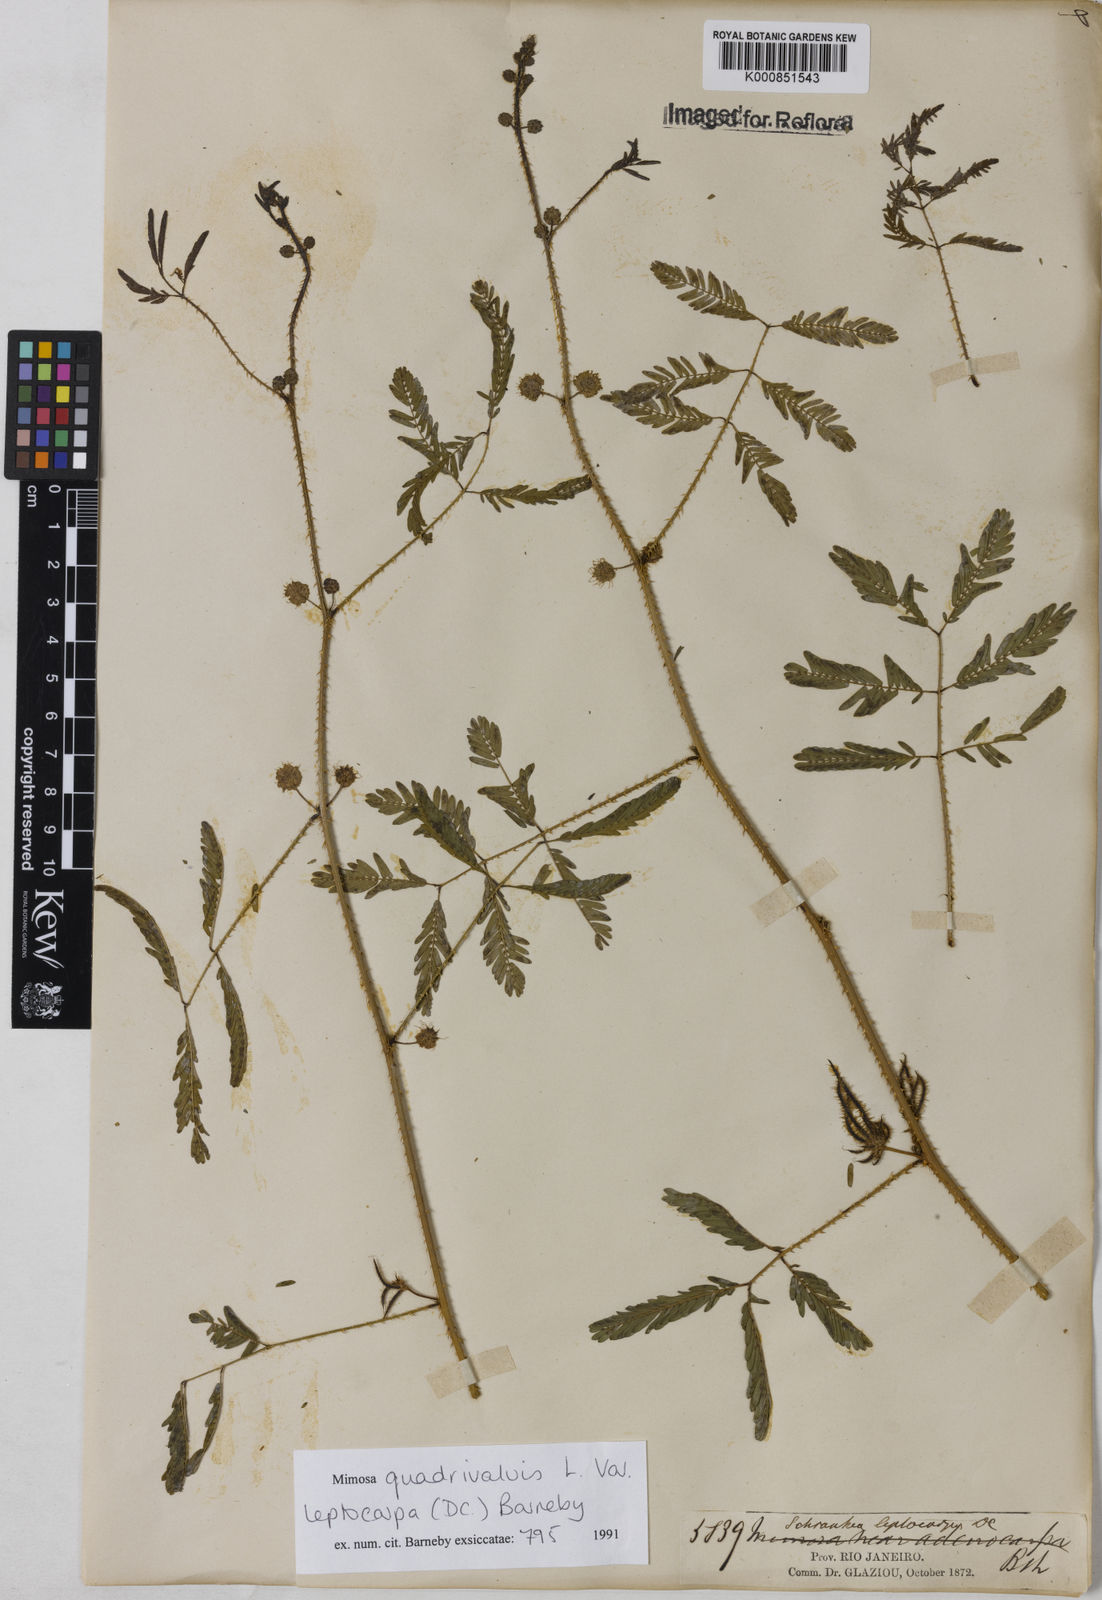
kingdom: Plantae
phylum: Tracheophyta
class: Magnoliopsida
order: Fabales
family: Fabaceae
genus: Mimosa
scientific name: Mimosa candollei
